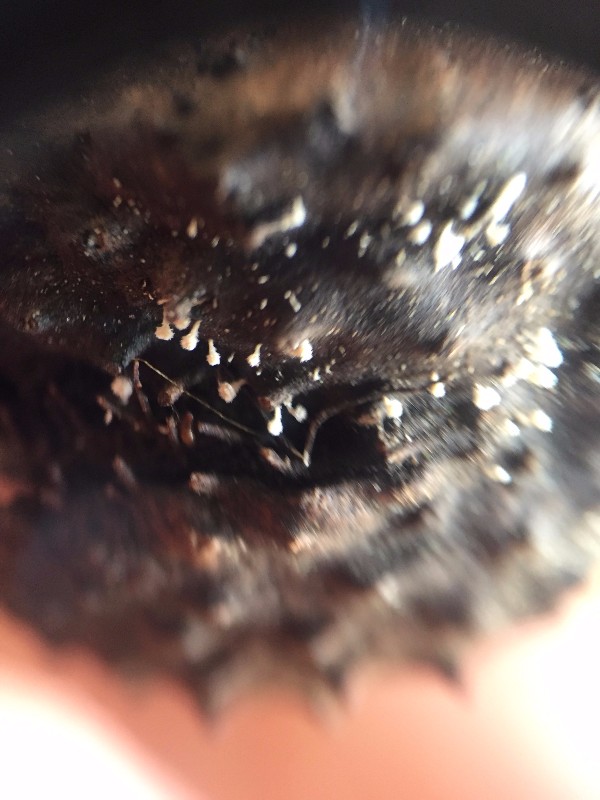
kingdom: Fungi
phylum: Ascomycota
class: Leotiomycetes
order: Helotiales
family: Lachnaceae
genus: Lachnum
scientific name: Lachnum virgineum
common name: jomfru-frynseskive
